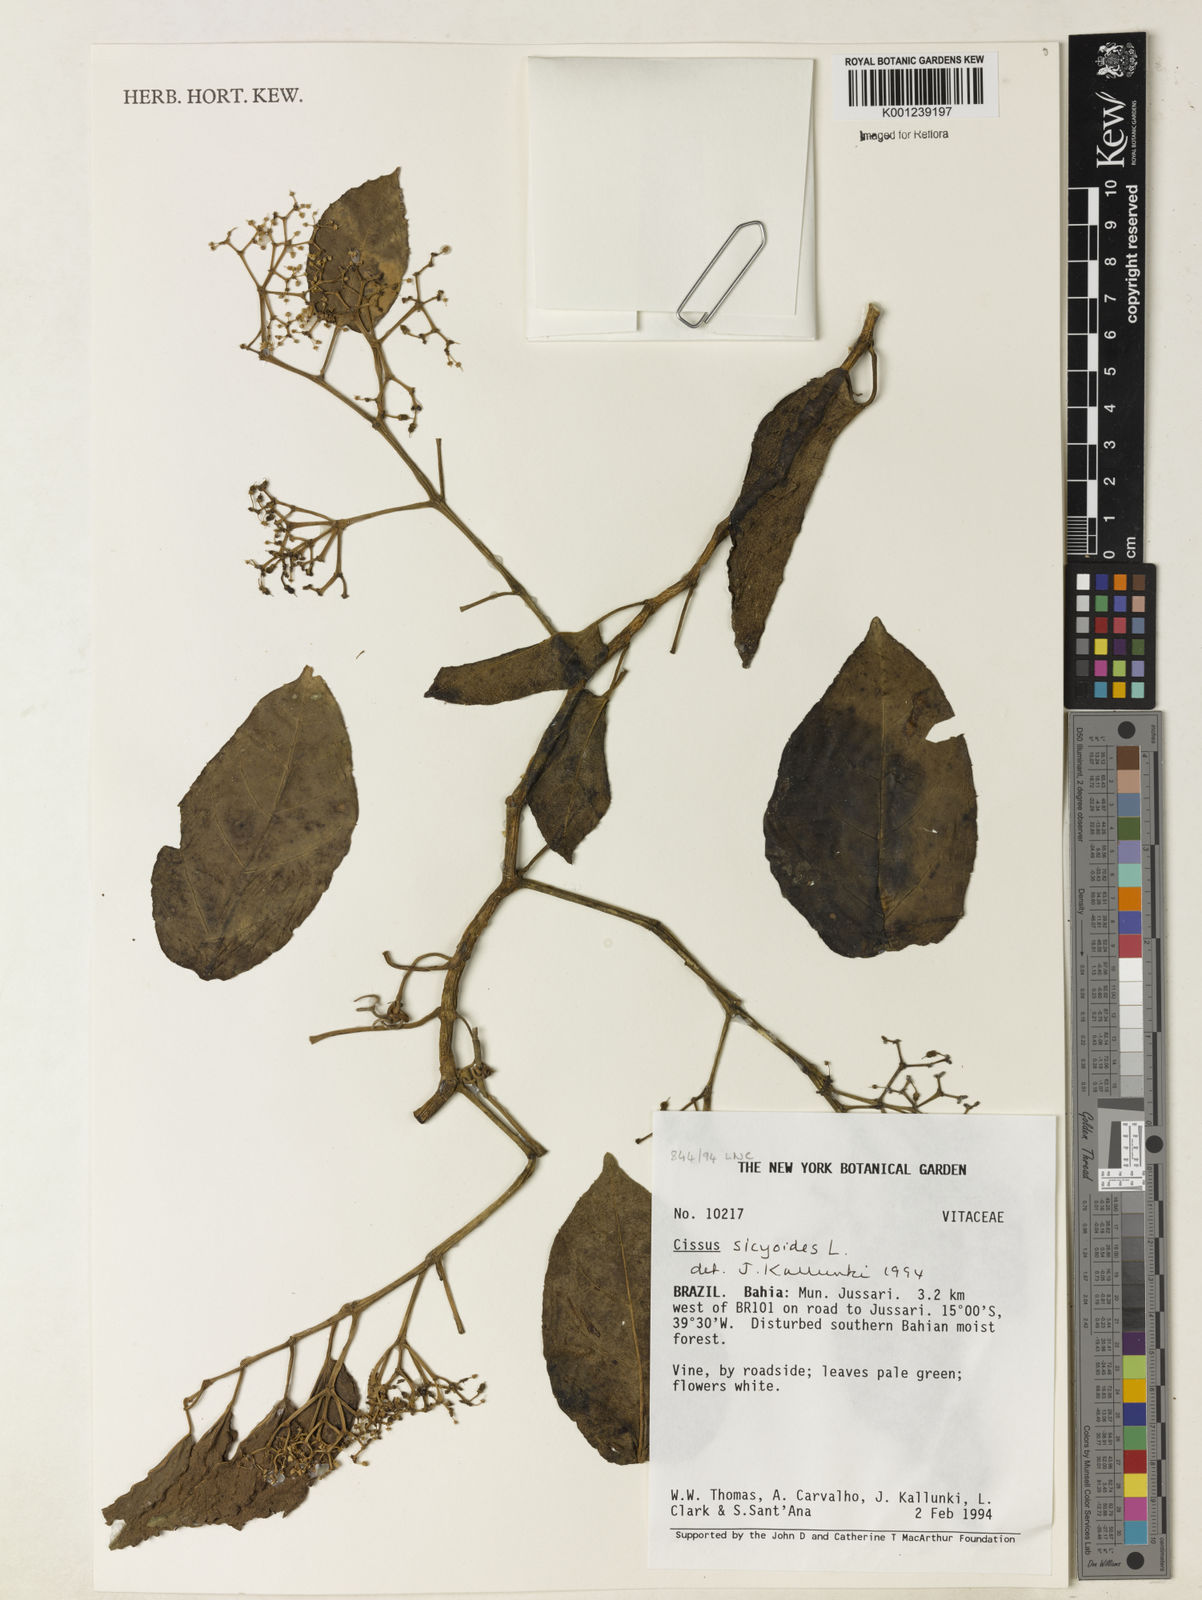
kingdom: Plantae
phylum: Tracheophyta
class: Magnoliopsida
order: Vitales
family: Vitaceae
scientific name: Vitaceae
